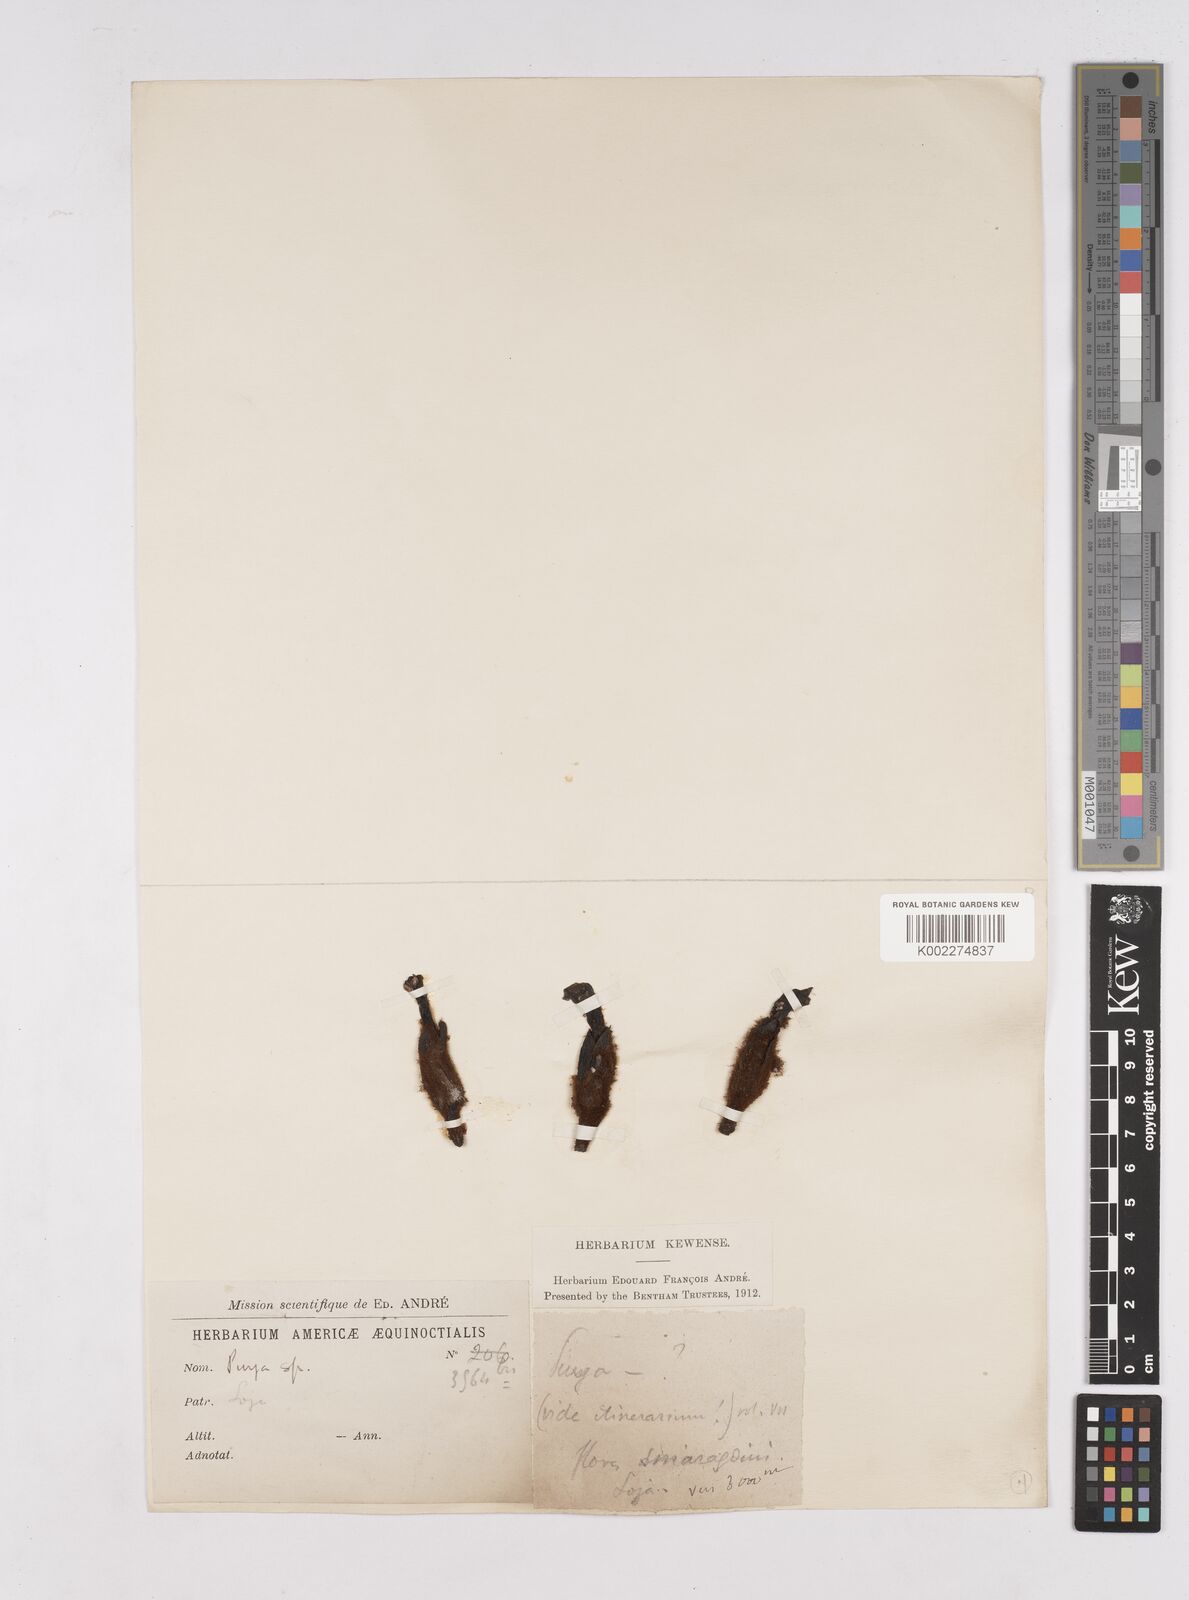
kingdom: Plantae
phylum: Tracheophyta
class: Liliopsida
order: Poales
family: Bromeliaceae
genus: Puya
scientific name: Puya vestita
